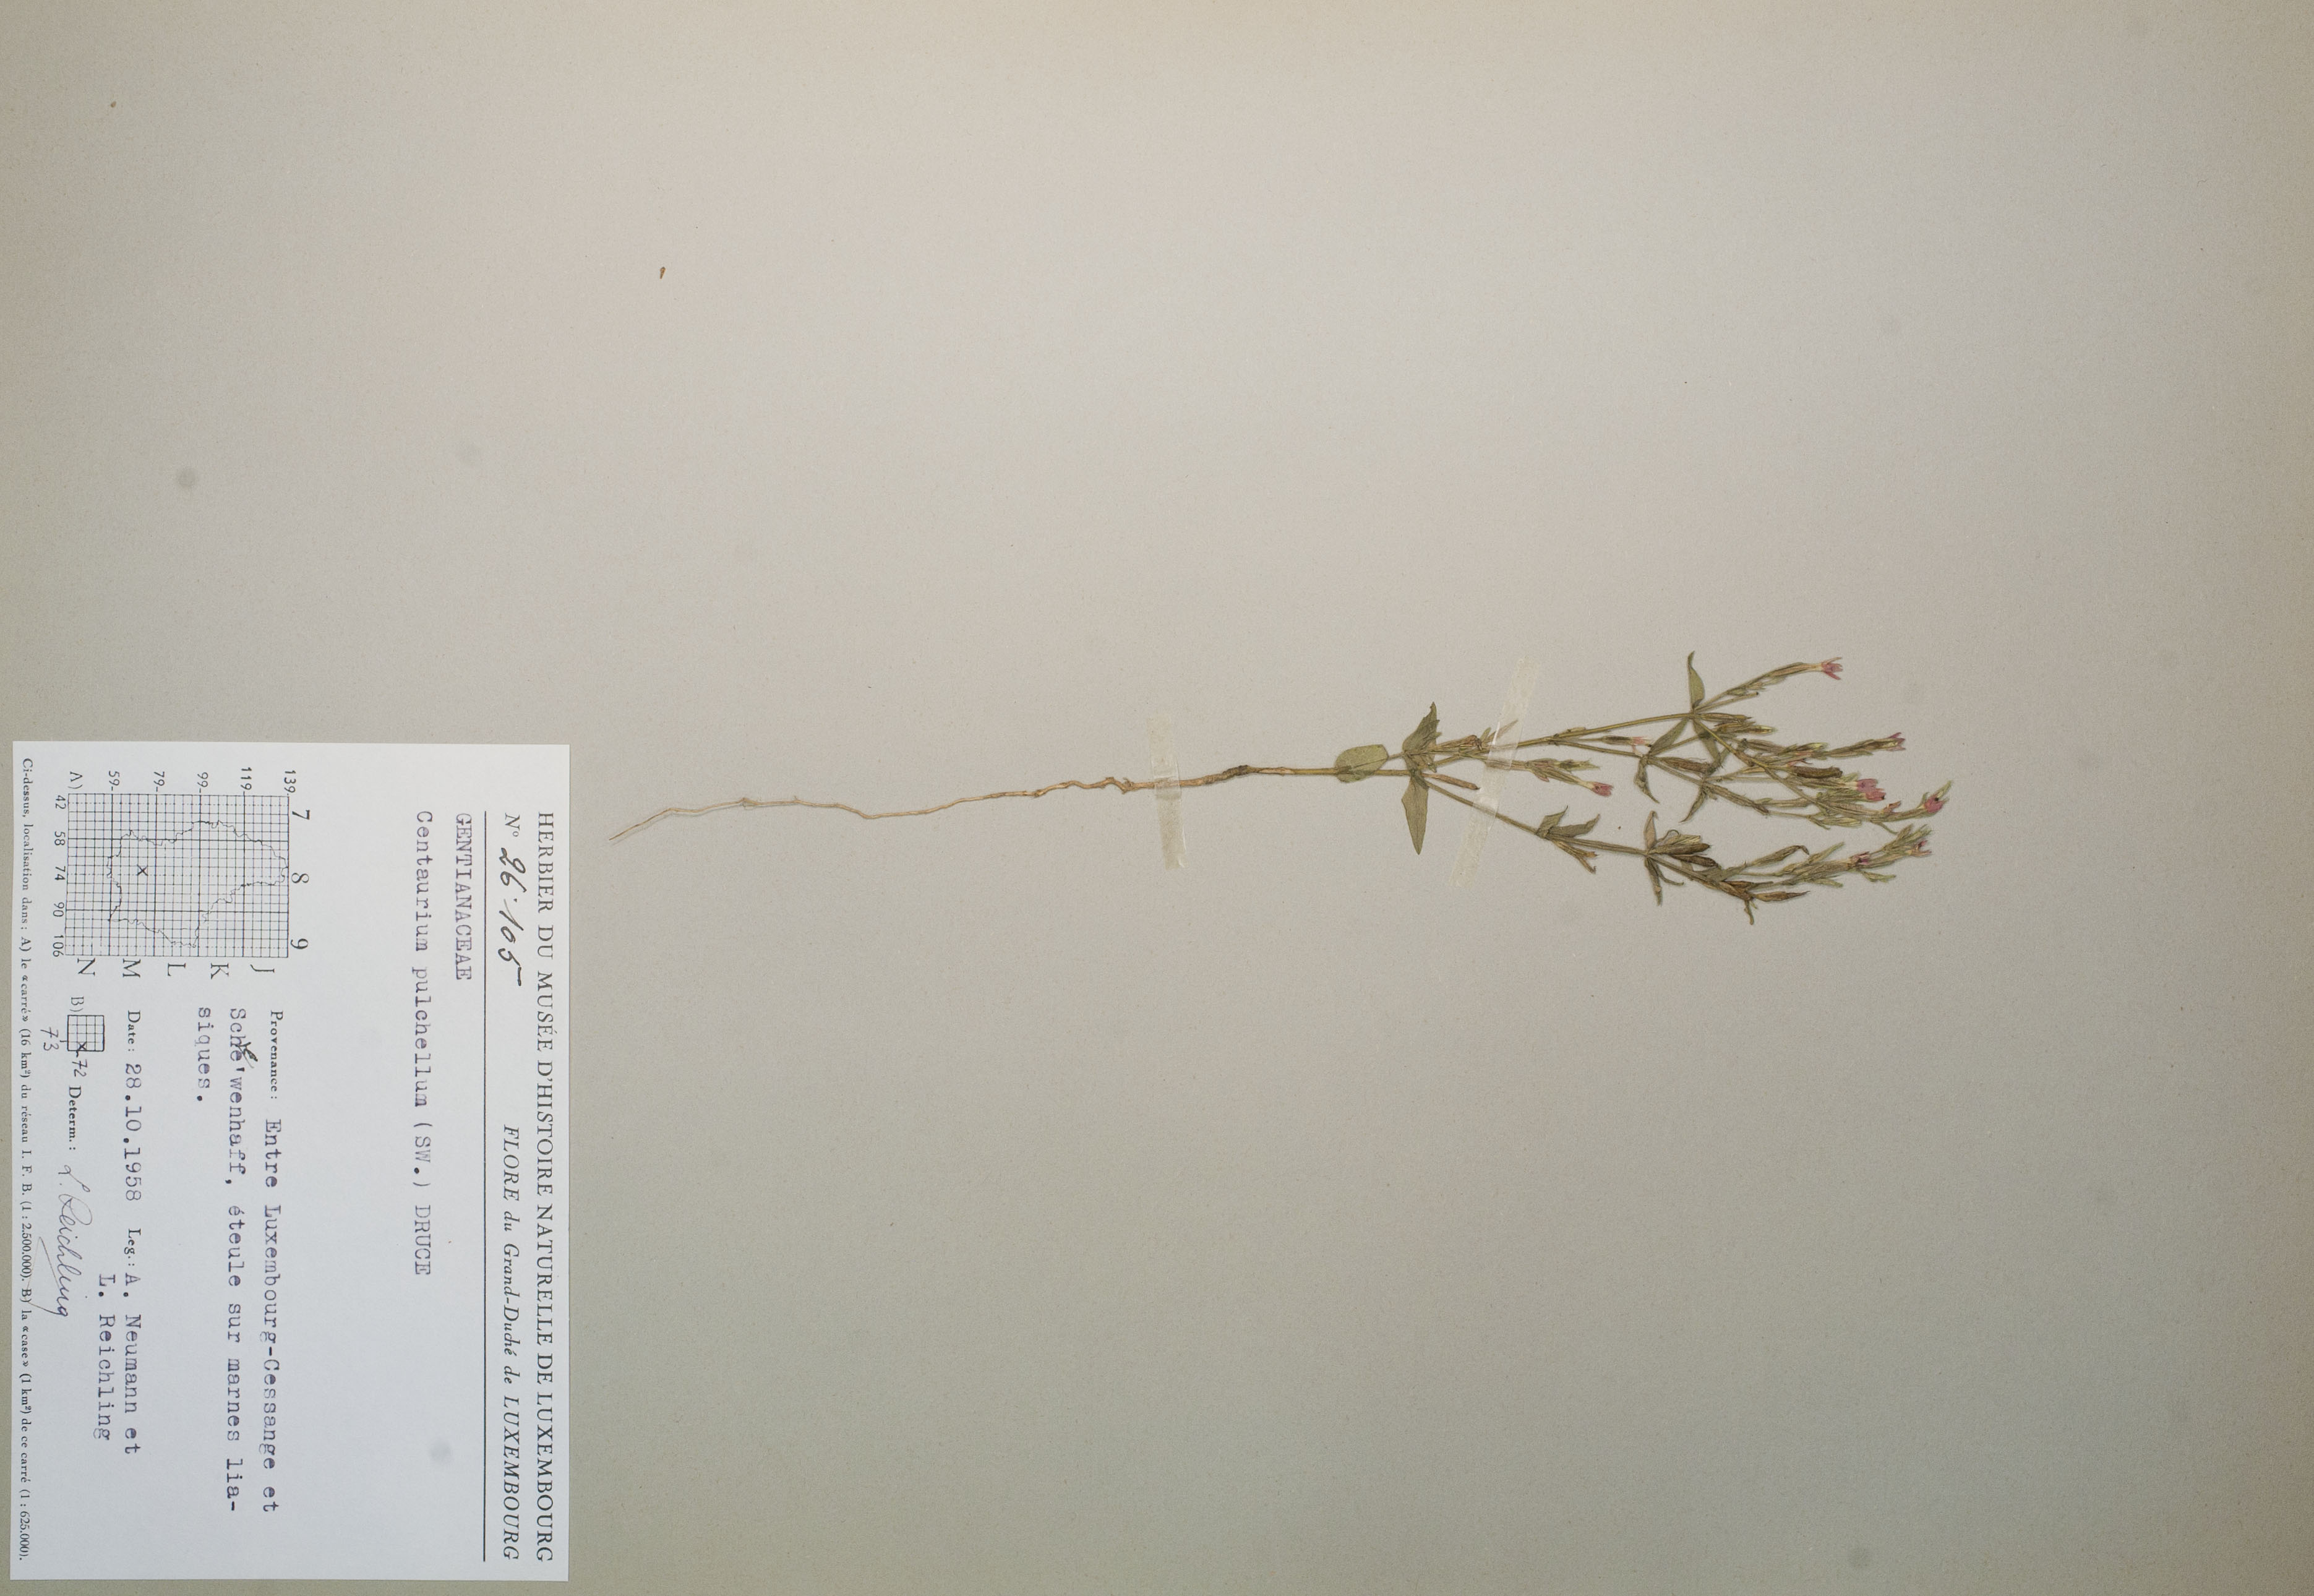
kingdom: Plantae
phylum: Tracheophyta
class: Magnoliopsida
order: Gentianales
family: Gentianaceae
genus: Centaurium
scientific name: Centaurium pulchellum
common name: Lesser centaury
